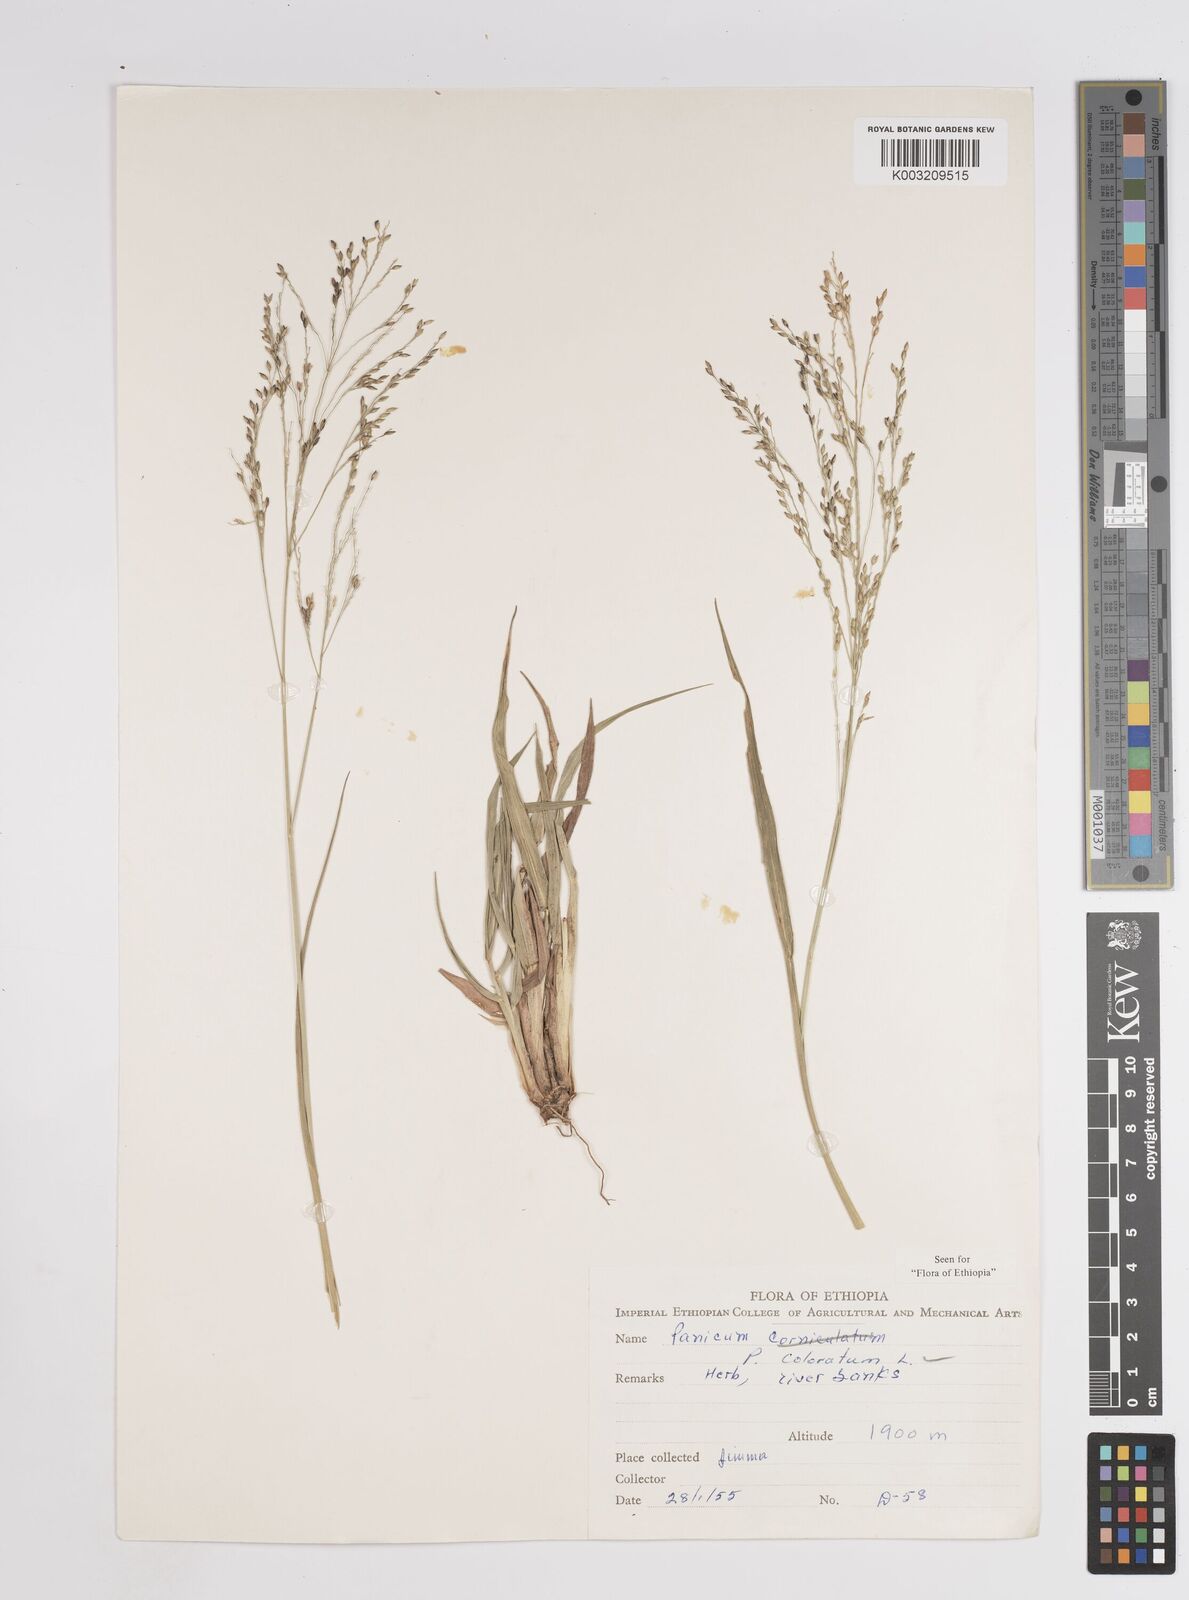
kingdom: Plantae
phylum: Tracheophyta
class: Liliopsida
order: Poales
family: Poaceae
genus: Tricholaena
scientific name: Tricholaena monachne
